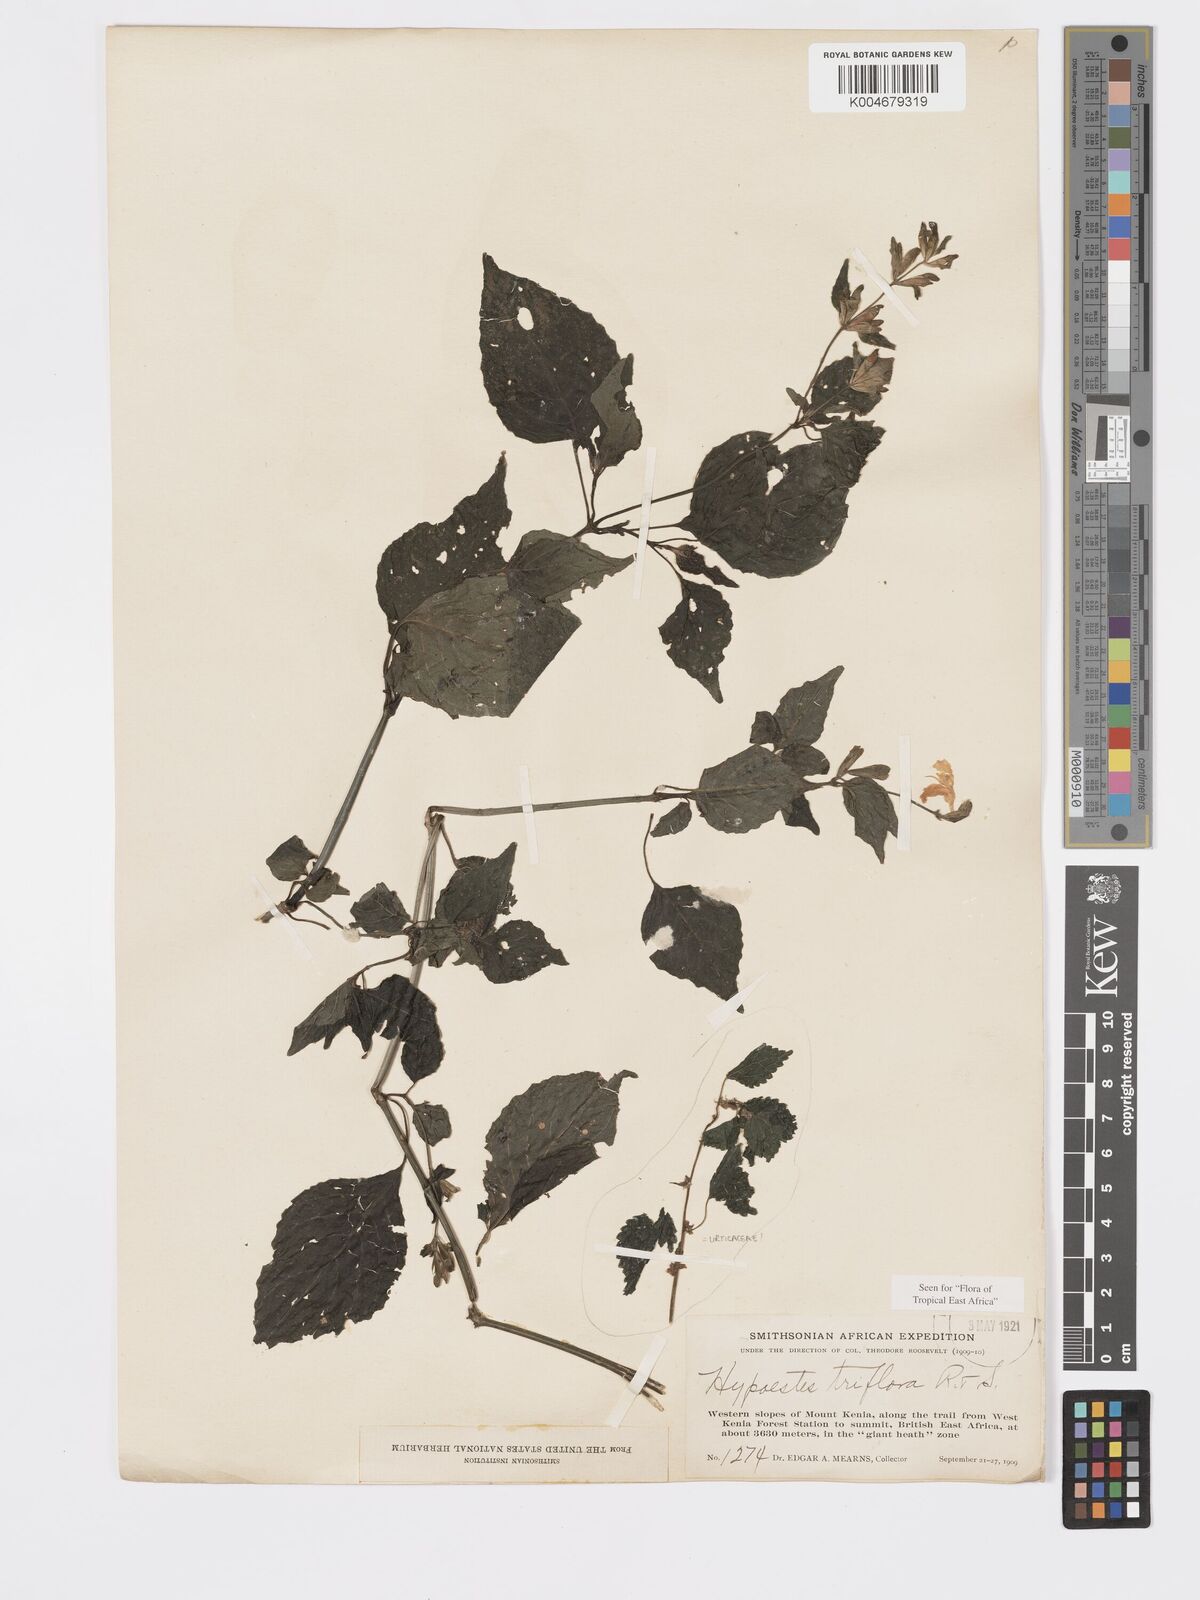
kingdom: Plantae
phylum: Tracheophyta
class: Magnoliopsida
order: Lamiales
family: Acanthaceae
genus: Hypoestes
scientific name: Hypoestes triflora
